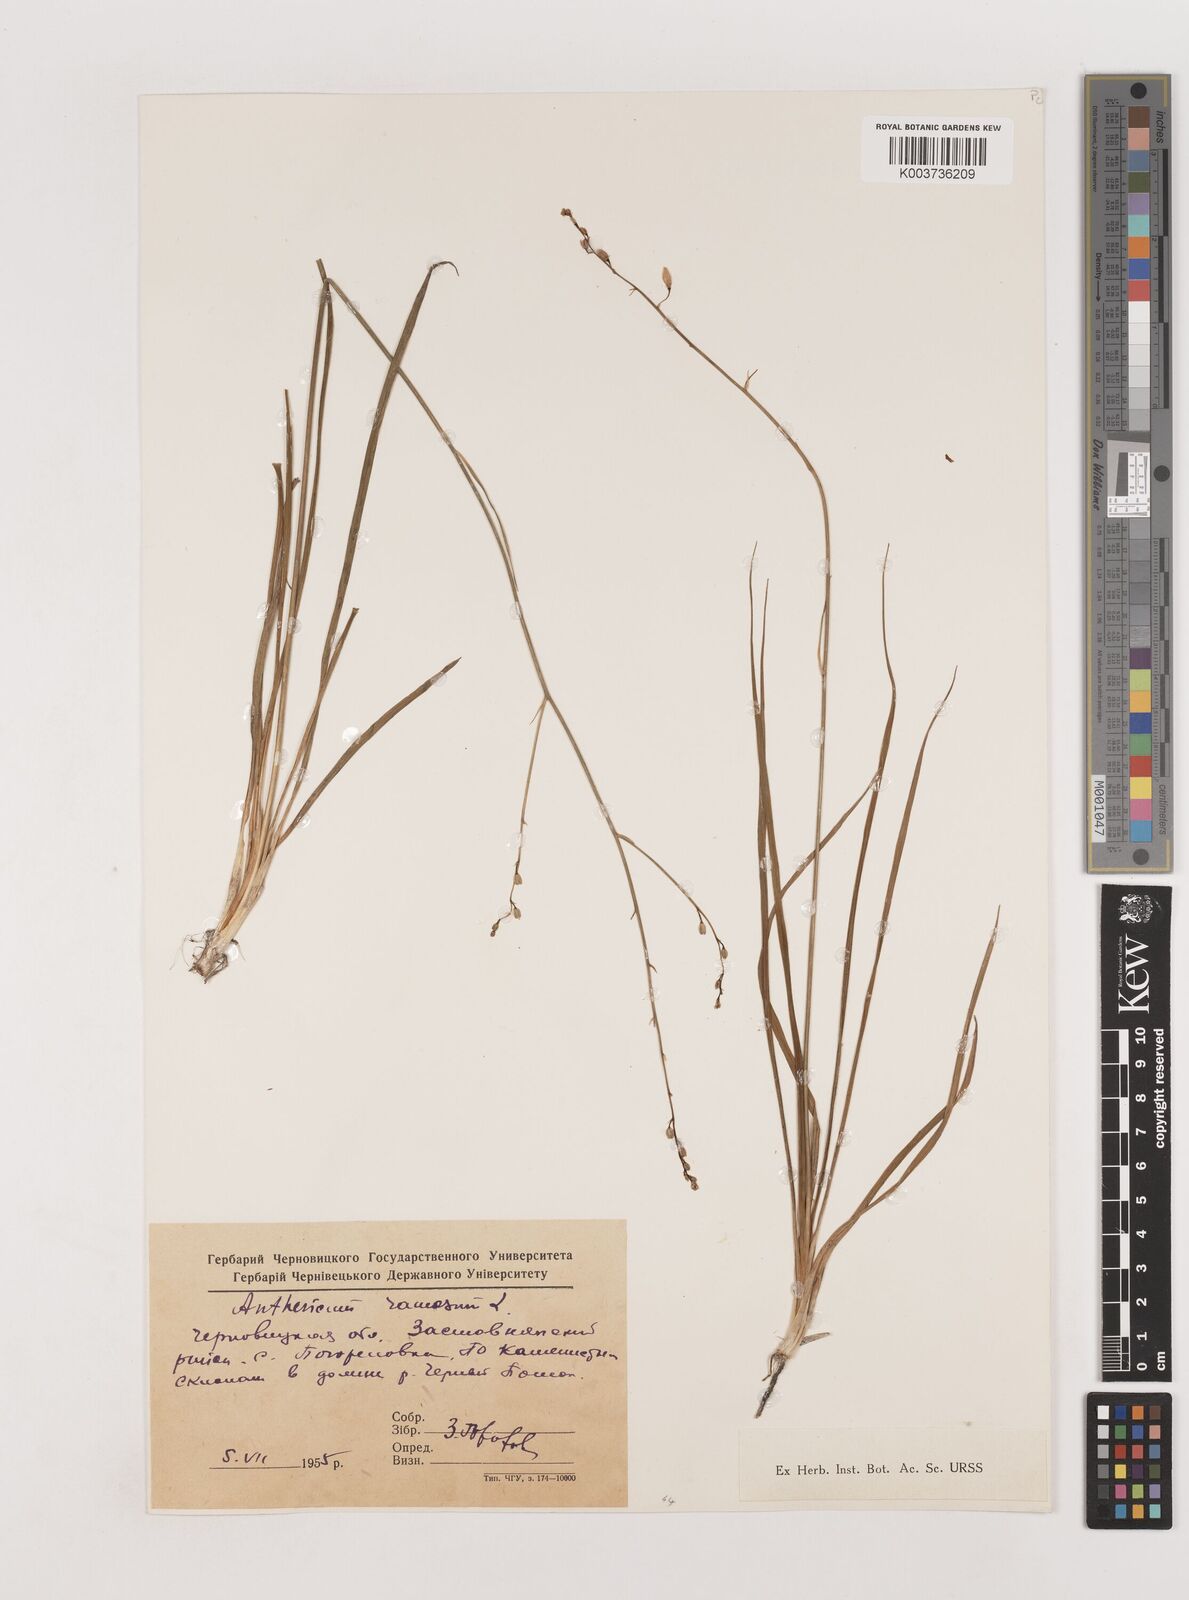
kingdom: Plantae
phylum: Tracheophyta
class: Liliopsida
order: Asparagales
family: Asparagaceae
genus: Chlorophytum
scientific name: Chlorophytum comosum
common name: Spider plant
